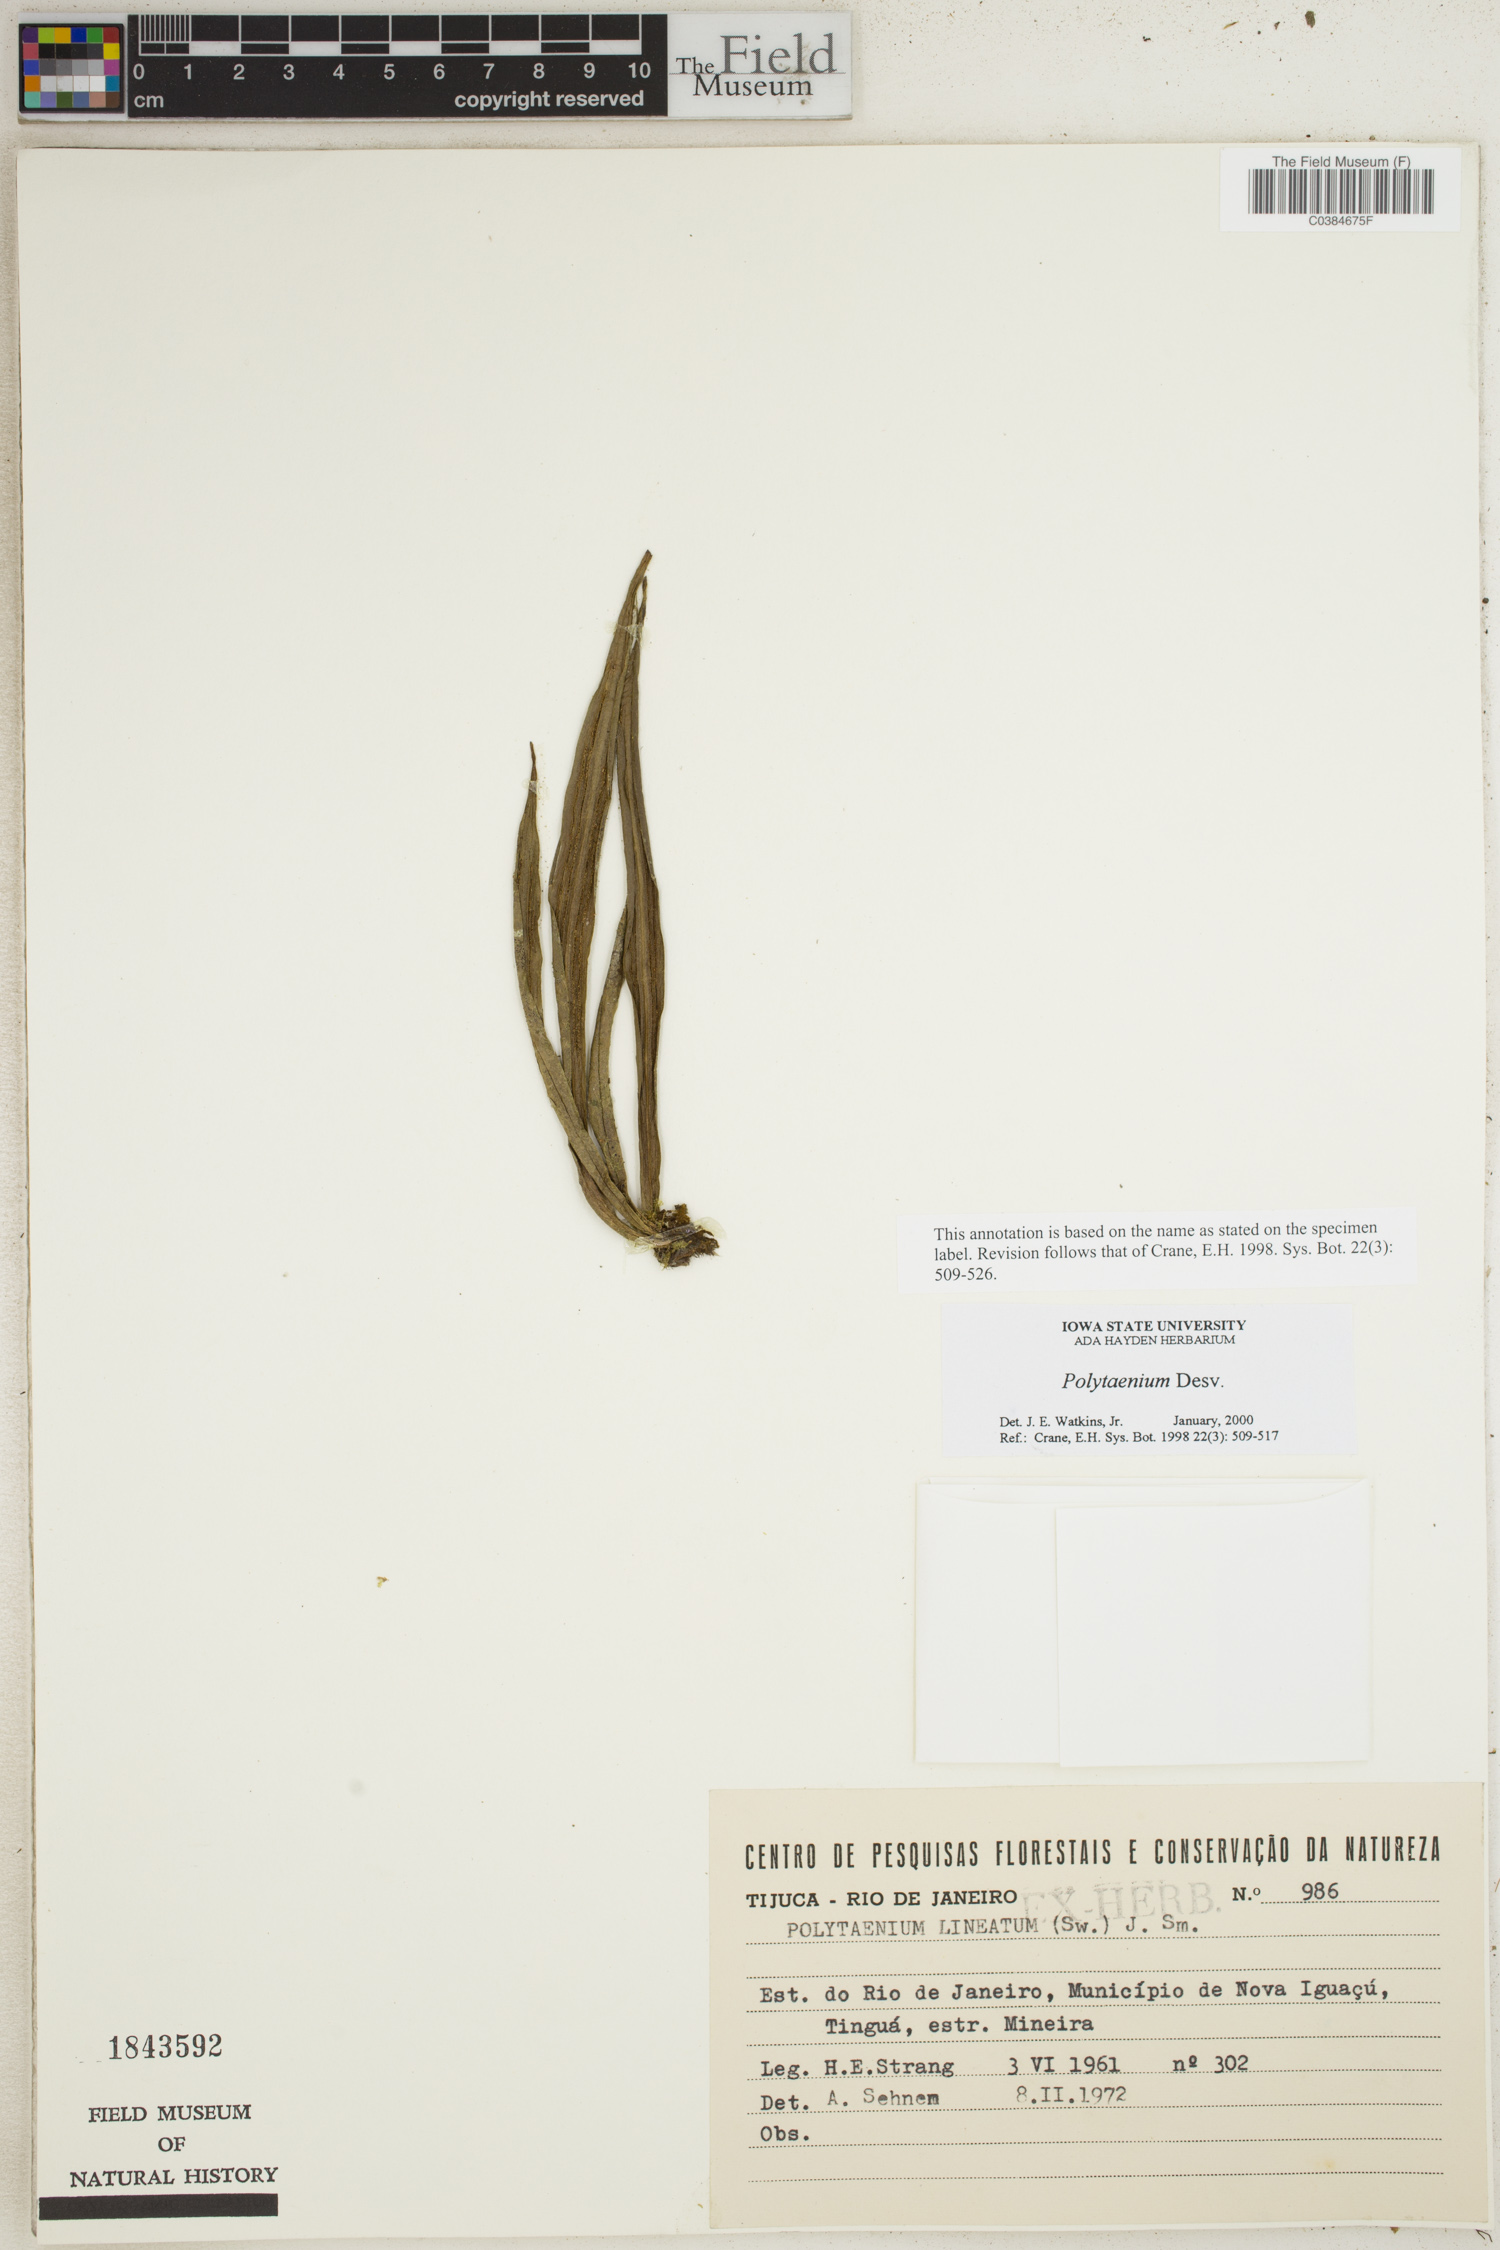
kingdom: Plantae
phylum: Tracheophyta
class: Polypodiopsida
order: Polypodiales
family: Pteridaceae
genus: Polytaenium
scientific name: Polytaenium
